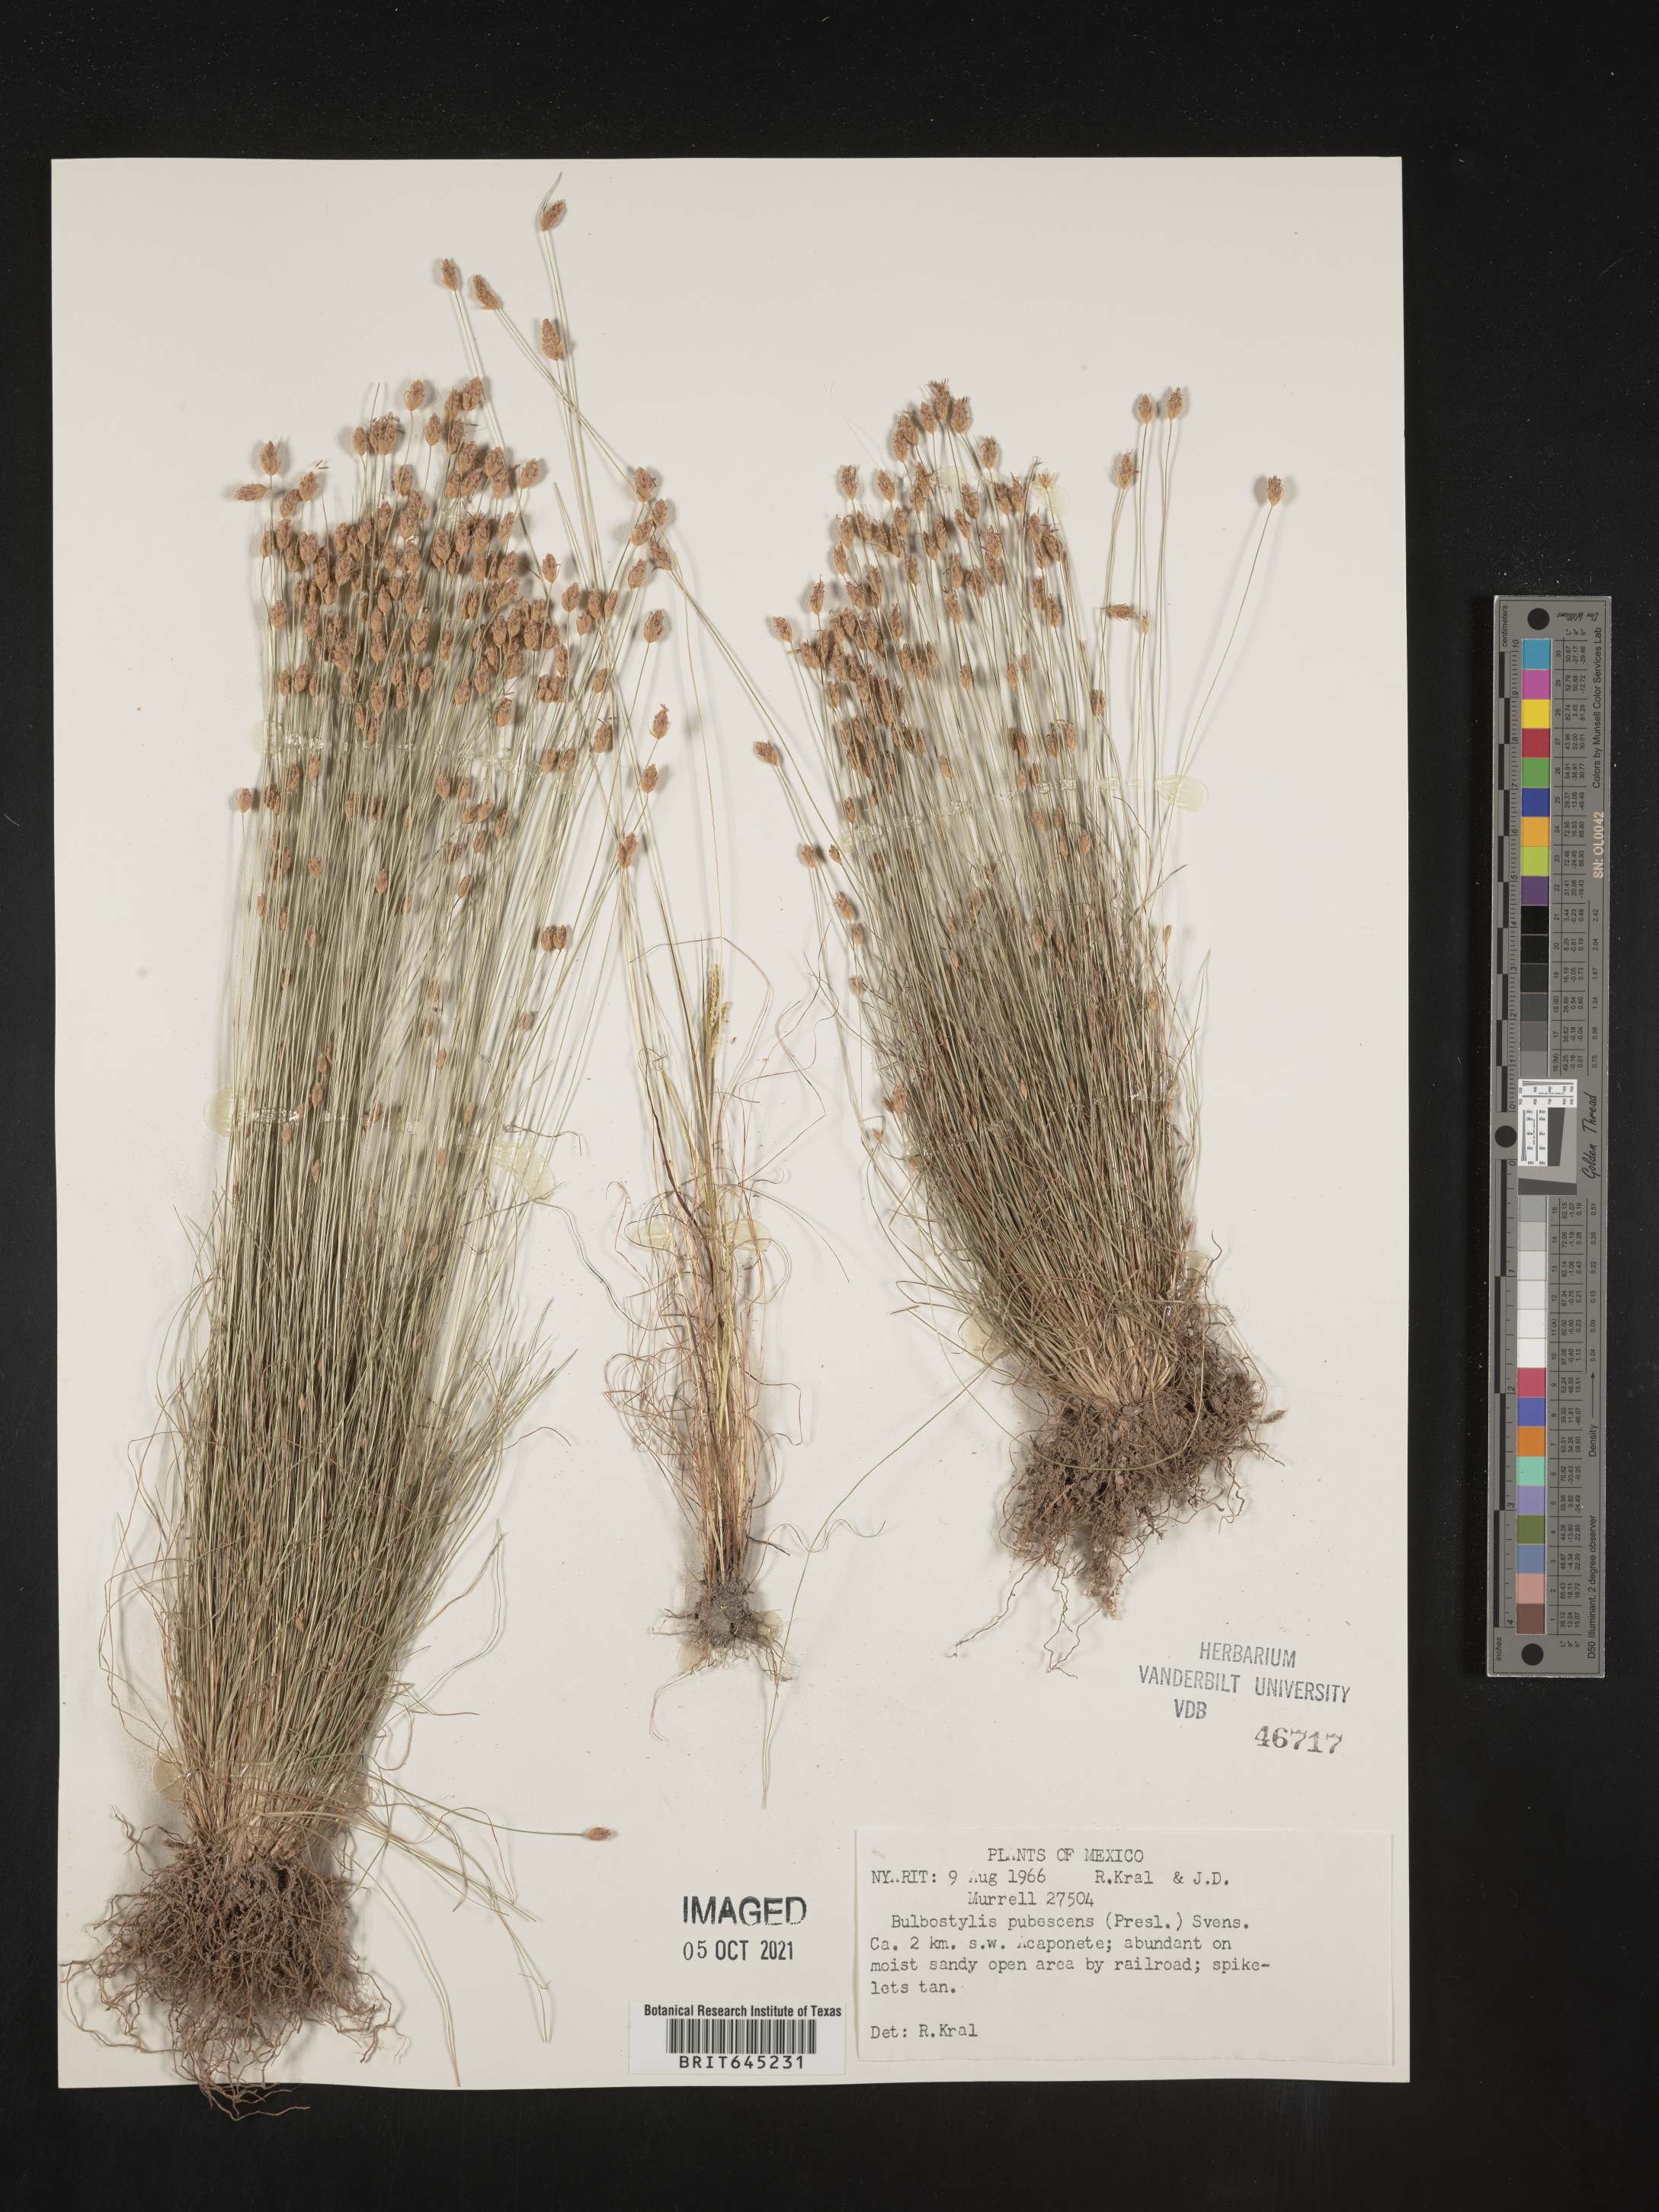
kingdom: Plantae
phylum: Tracheophyta
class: Liliopsida
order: Poales
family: Cyperaceae
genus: Bulbostylis
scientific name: Bulbostylis pubescens
